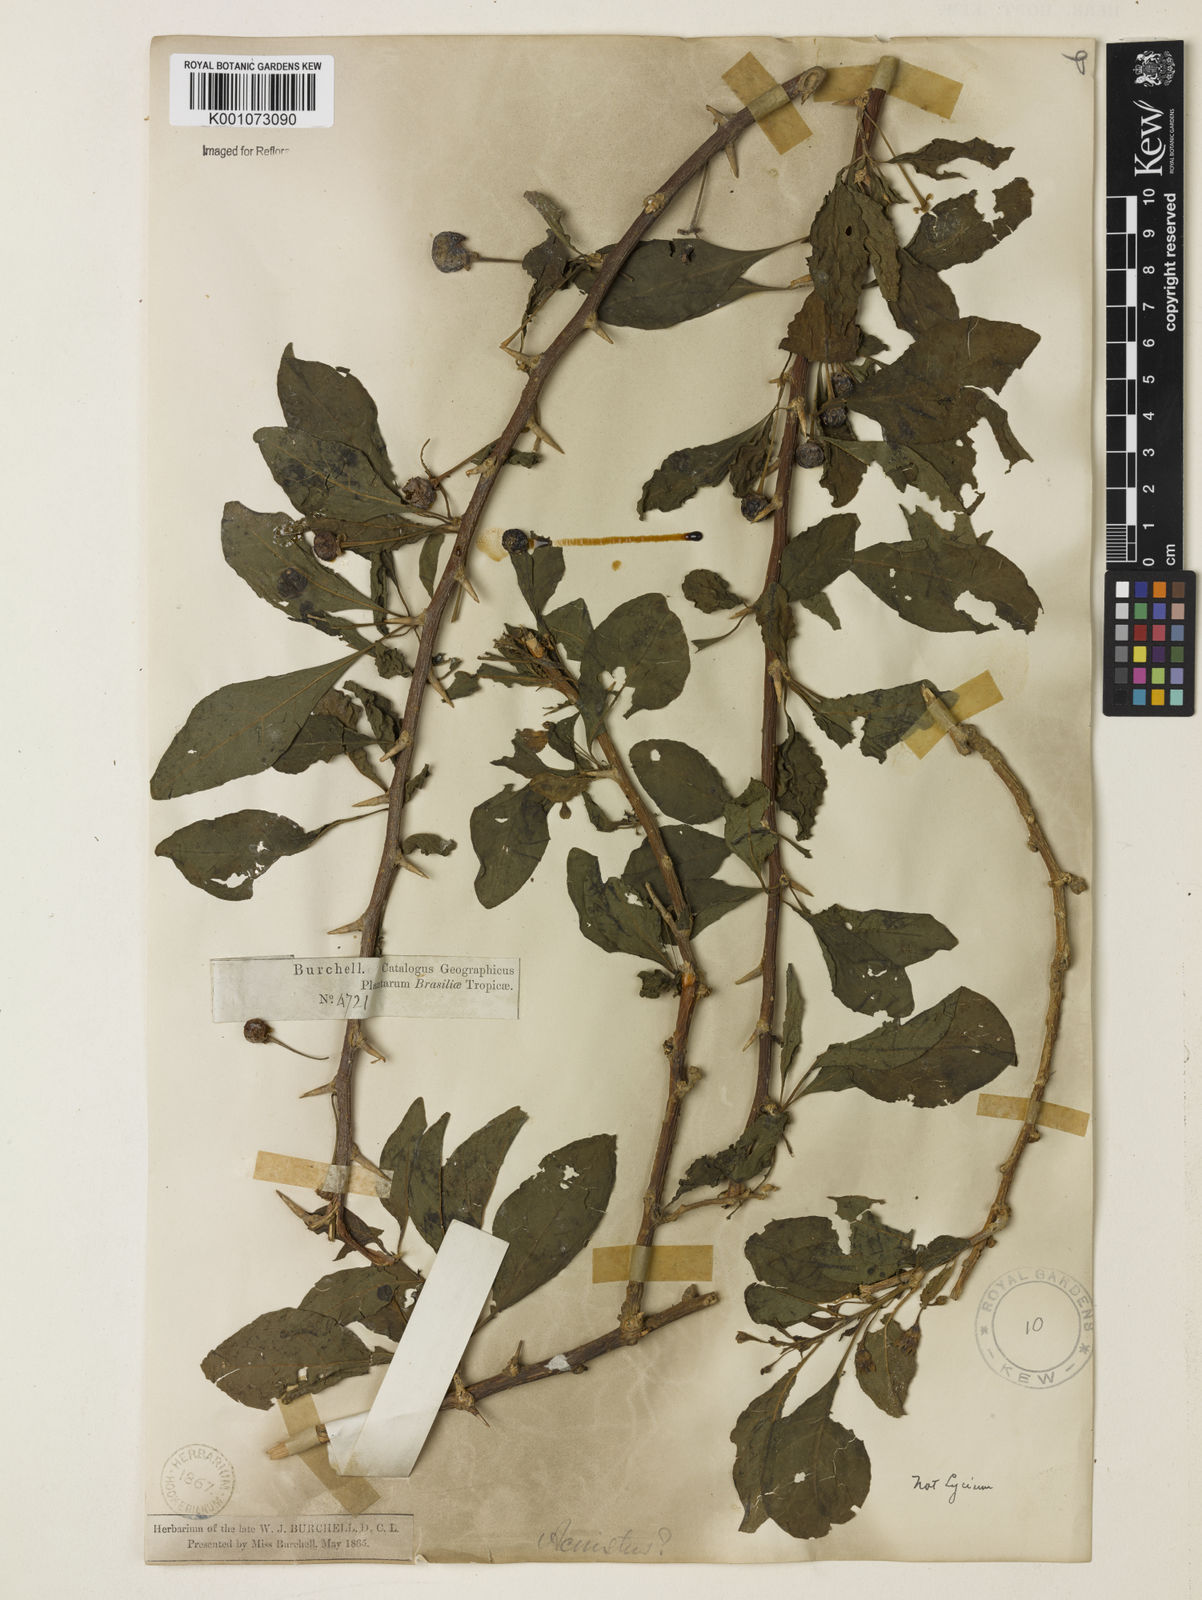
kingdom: Plantae
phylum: Tracheophyta
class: Magnoliopsida
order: Solanales
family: Solanaceae
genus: Iochroma
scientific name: Iochroma Acnistus spec
